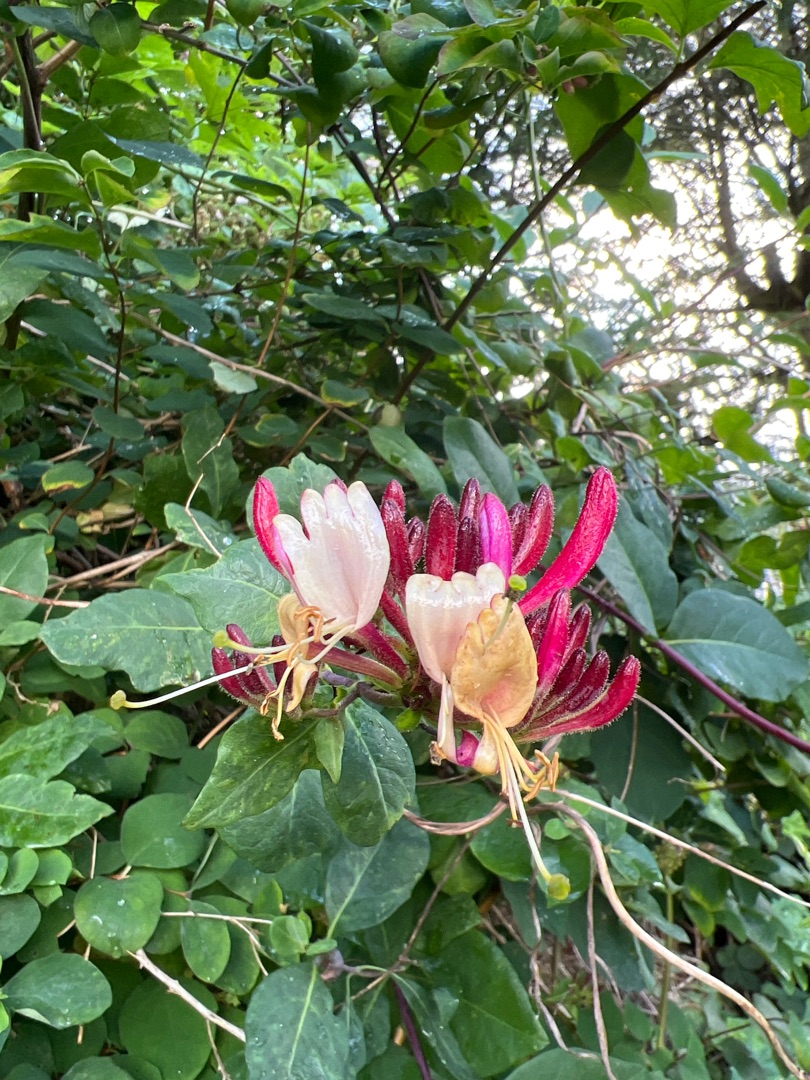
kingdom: Plantae
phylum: Tracheophyta
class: Magnoliopsida
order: Dipsacales
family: Caprifoliaceae
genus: Lonicera
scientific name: Lonicera periclymenum
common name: Almindelig gedeblad
